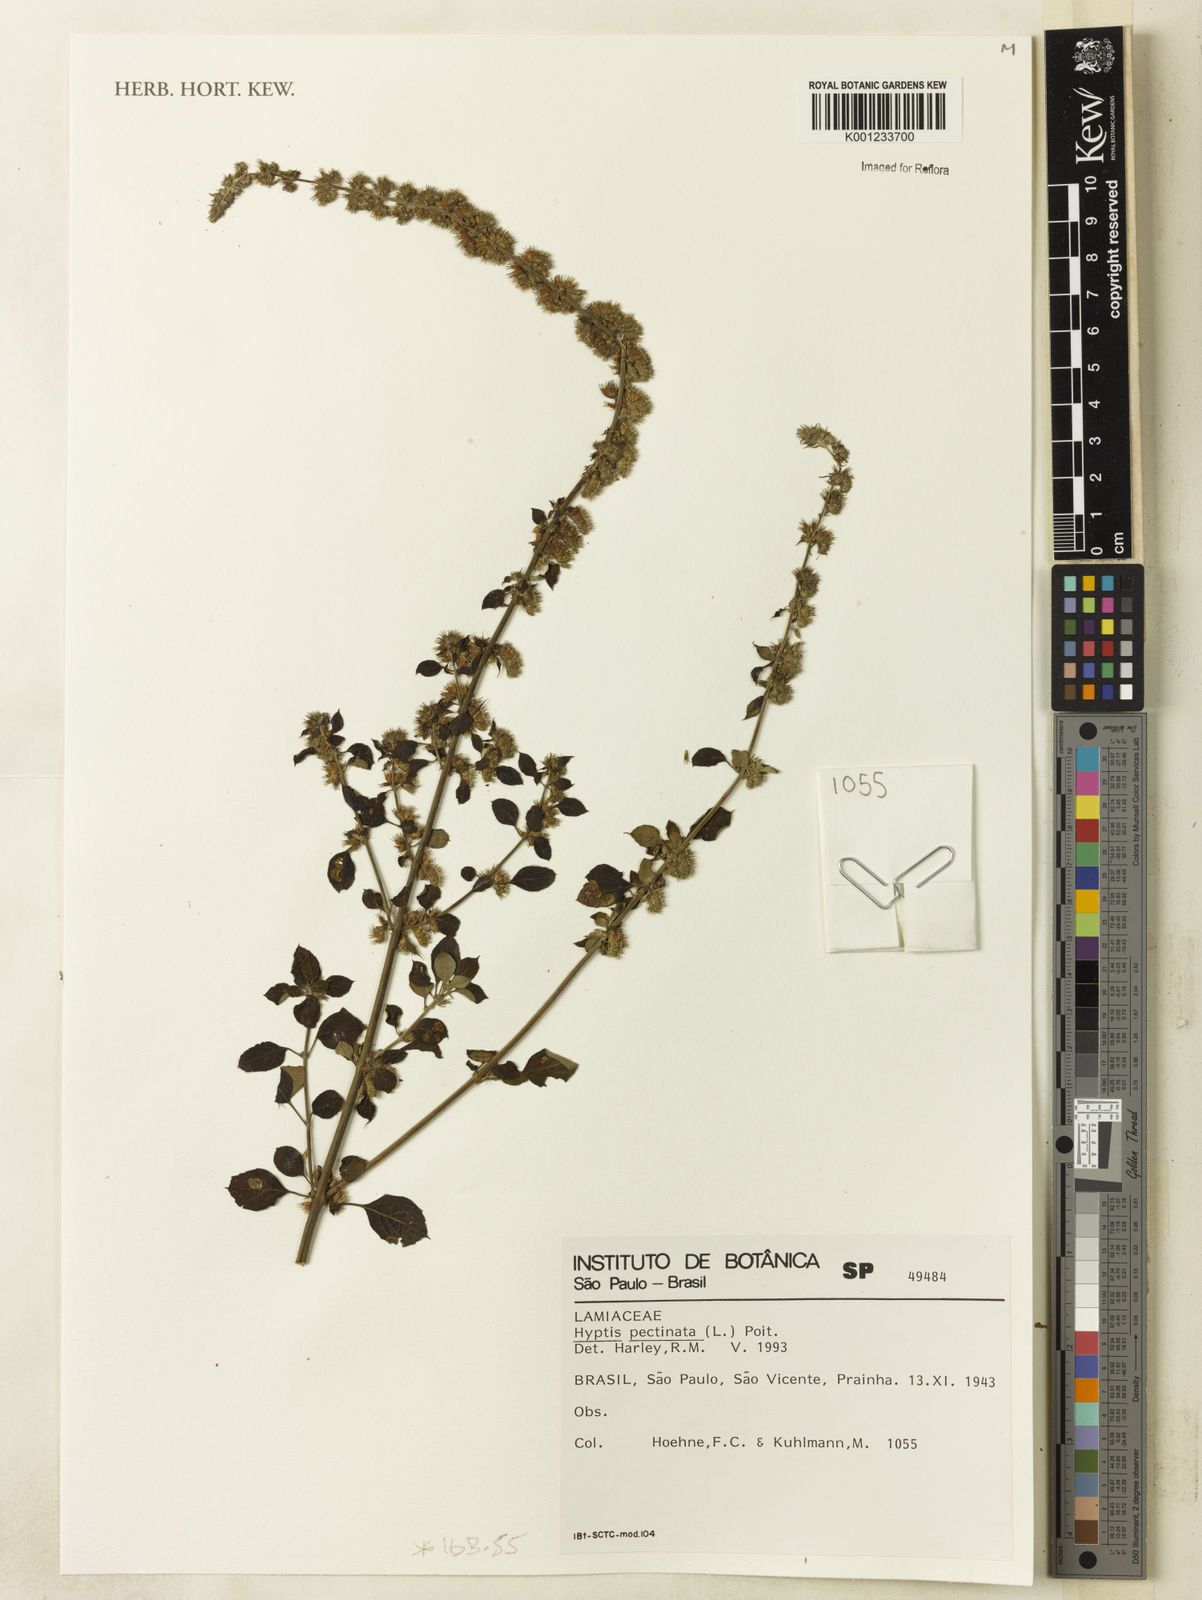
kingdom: Plantae
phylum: Tracheophyta
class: Magnoliopsida
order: Lamiales
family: Lamiaceae
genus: Mesosphaerum
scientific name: Mesosphaerum pectinatum
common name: Comb hyptis
